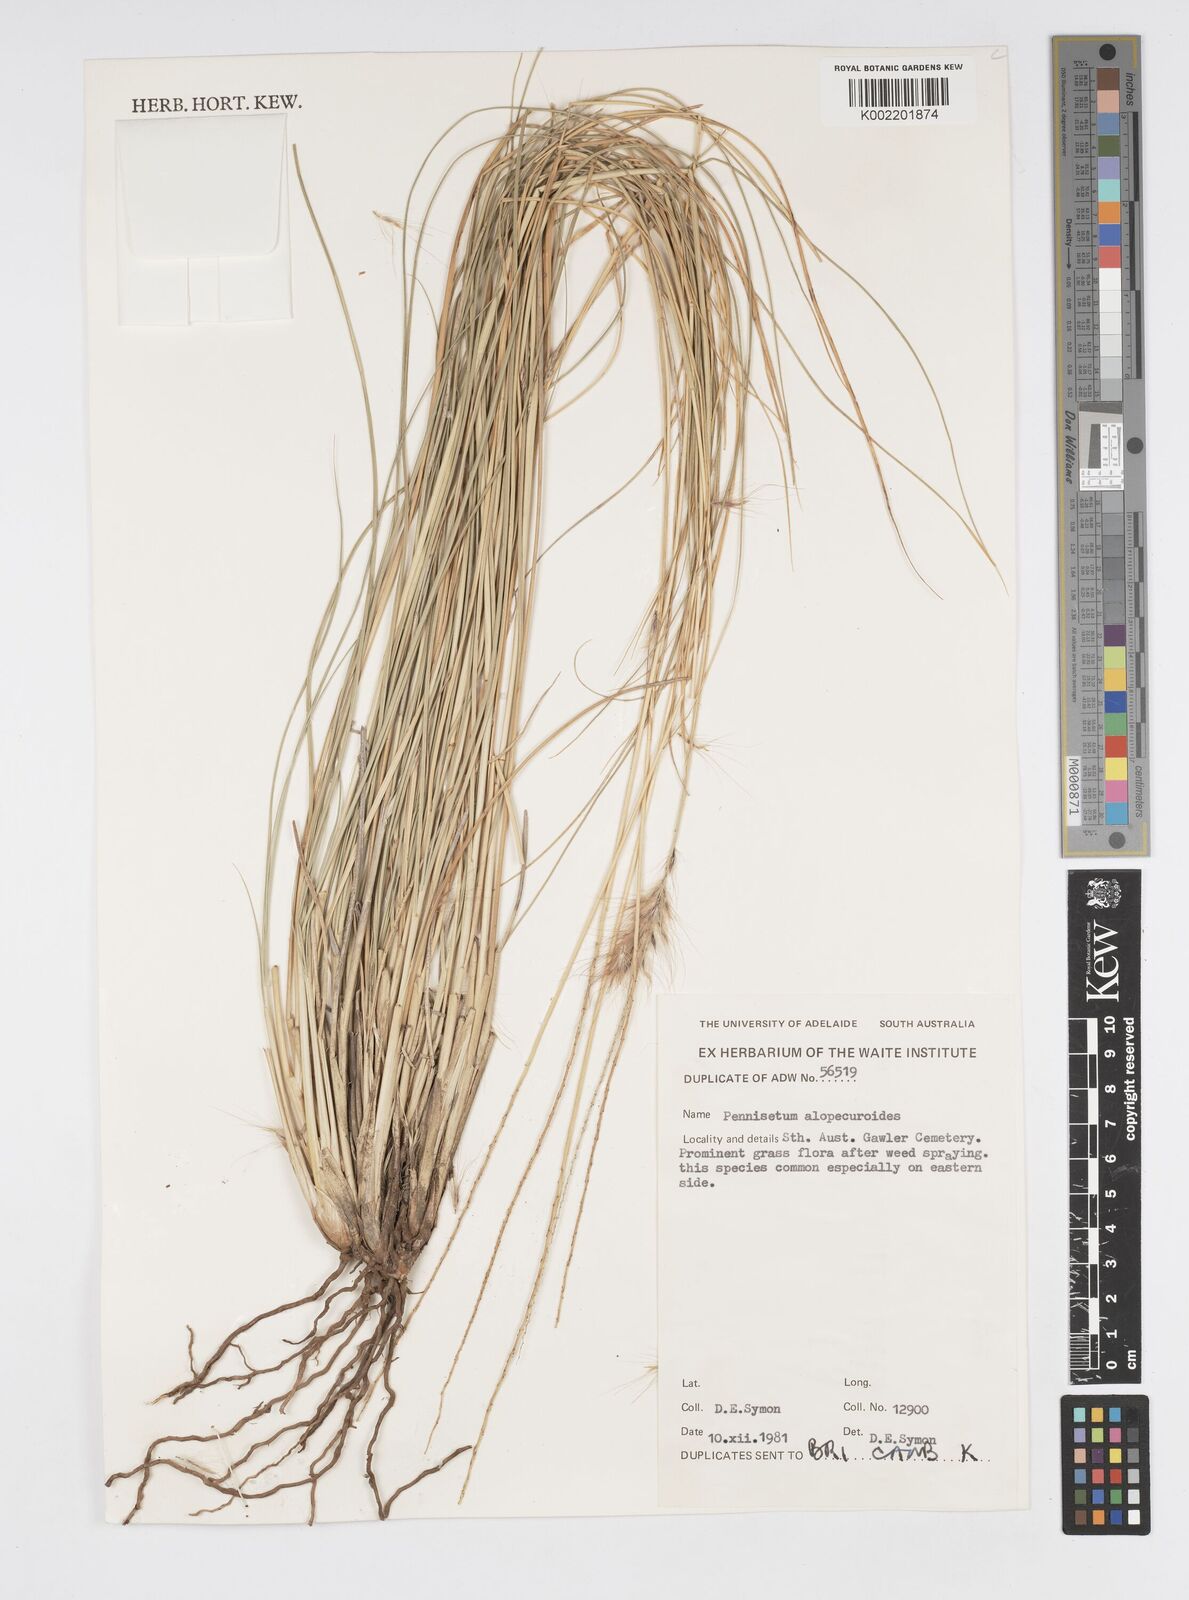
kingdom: Plantae
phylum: Tracheophyta
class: Liliopsida
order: Poales
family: Poaceae
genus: Cenchrus
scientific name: Cenchrus alopecuroides
